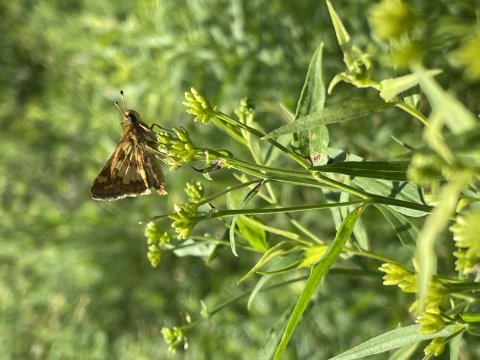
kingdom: Animalia
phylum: Arthropoda
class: Insecta
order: Lepidoptera
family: Hesperiidae
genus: Polites
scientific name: Polites coras
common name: Peck's Skipper
